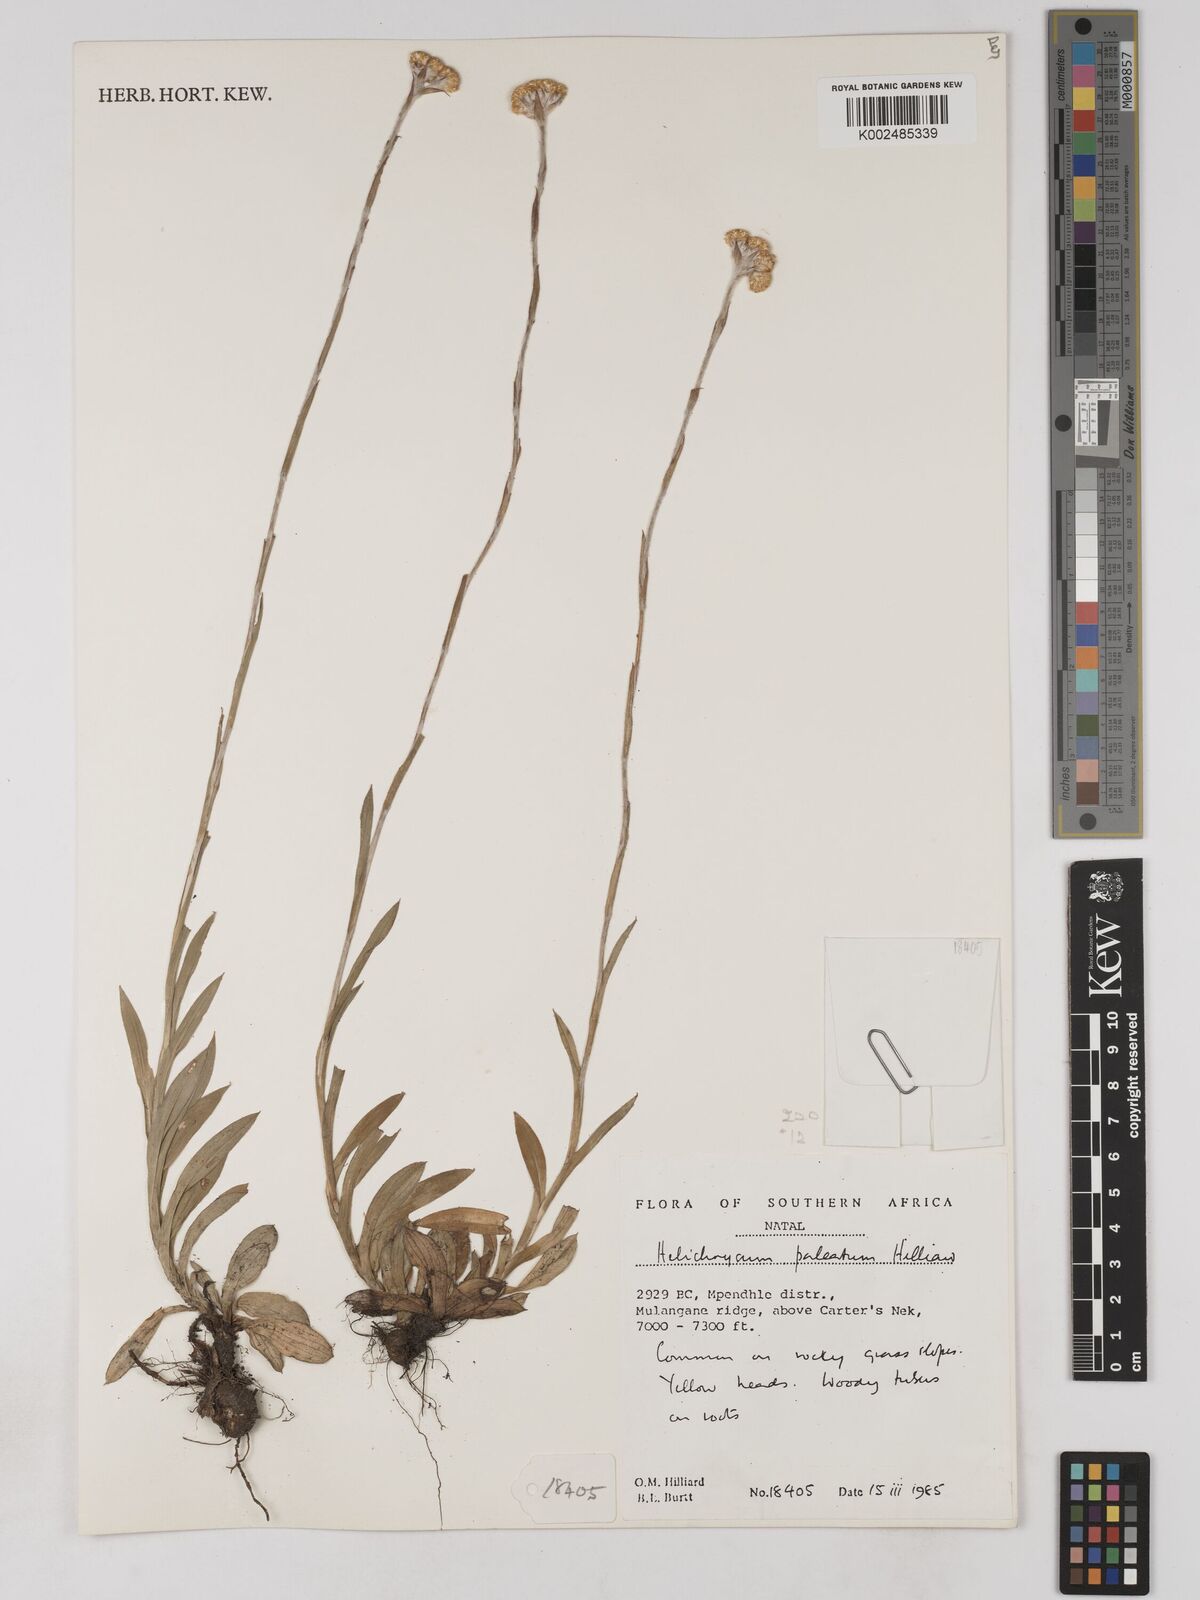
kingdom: Plantae
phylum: Tracheophyta
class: Magnoliopsida
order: Asterales
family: Asteraceae
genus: Helichrysum
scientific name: Helichrysum paleatum
